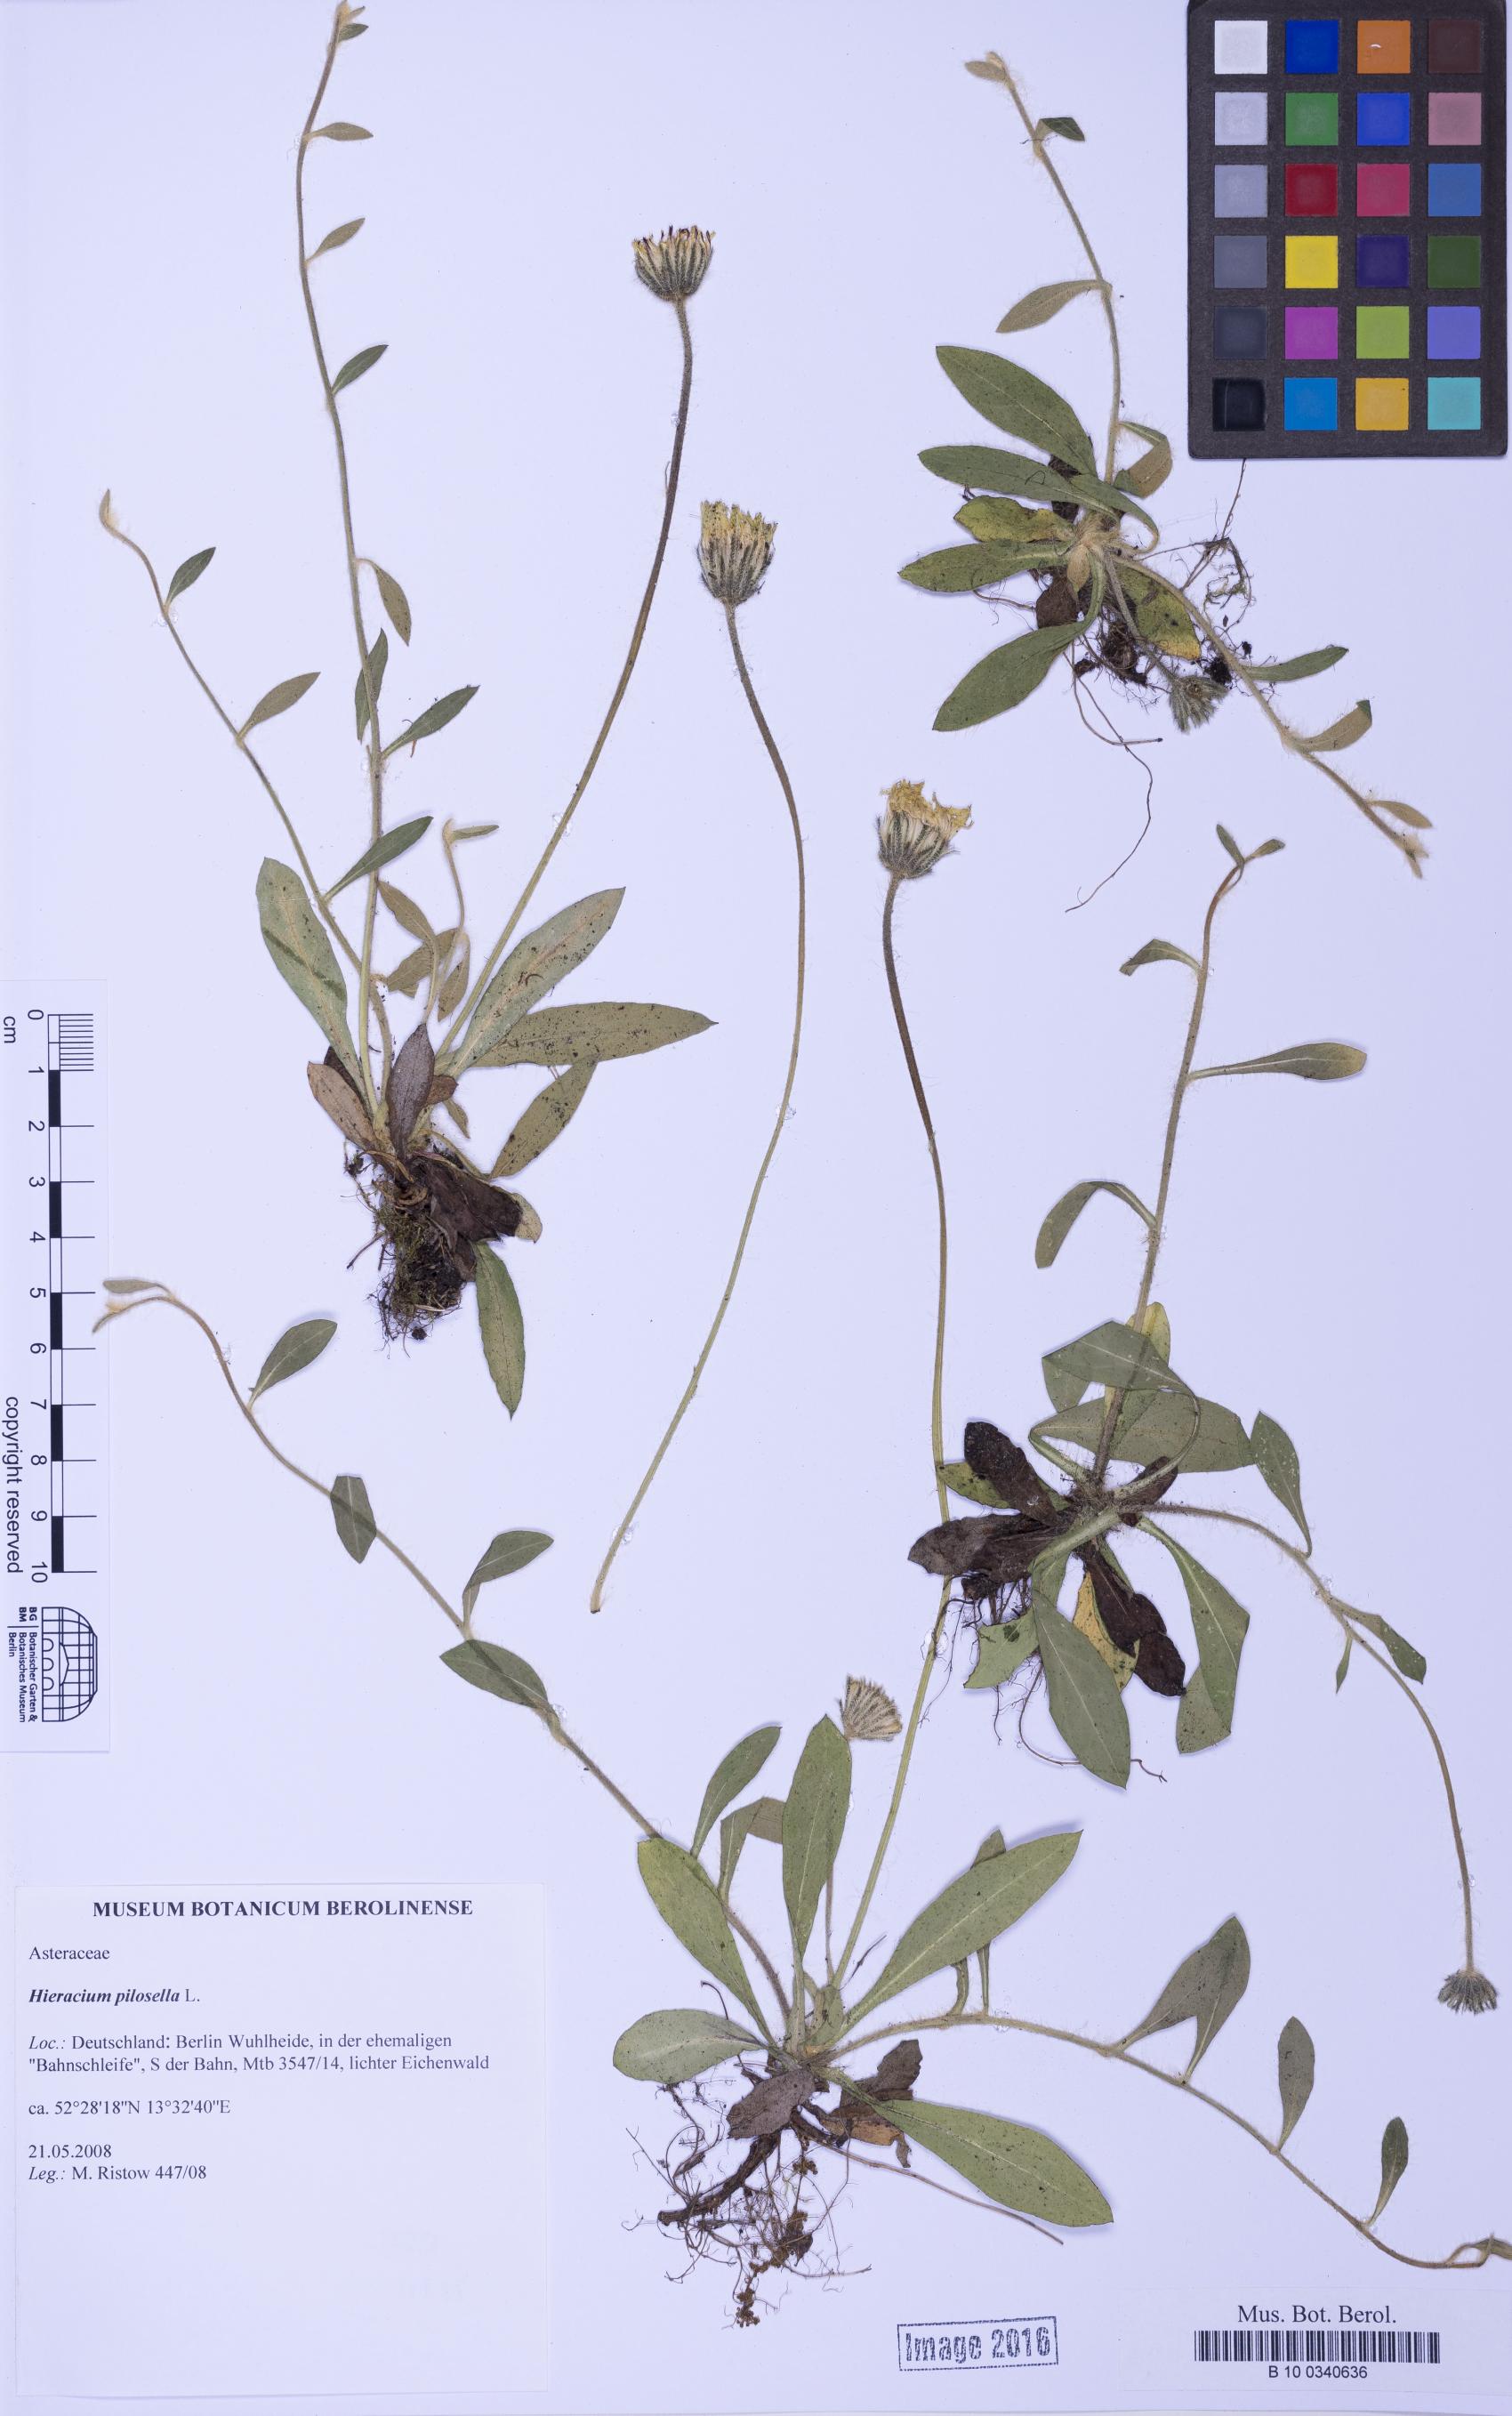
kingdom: Plantae
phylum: Tracheophyta
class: Magnoliopsida
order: Asterales
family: Asteraceae
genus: Pilosella
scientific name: Pilosella officinarum
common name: Mouse-ear hawkweed
